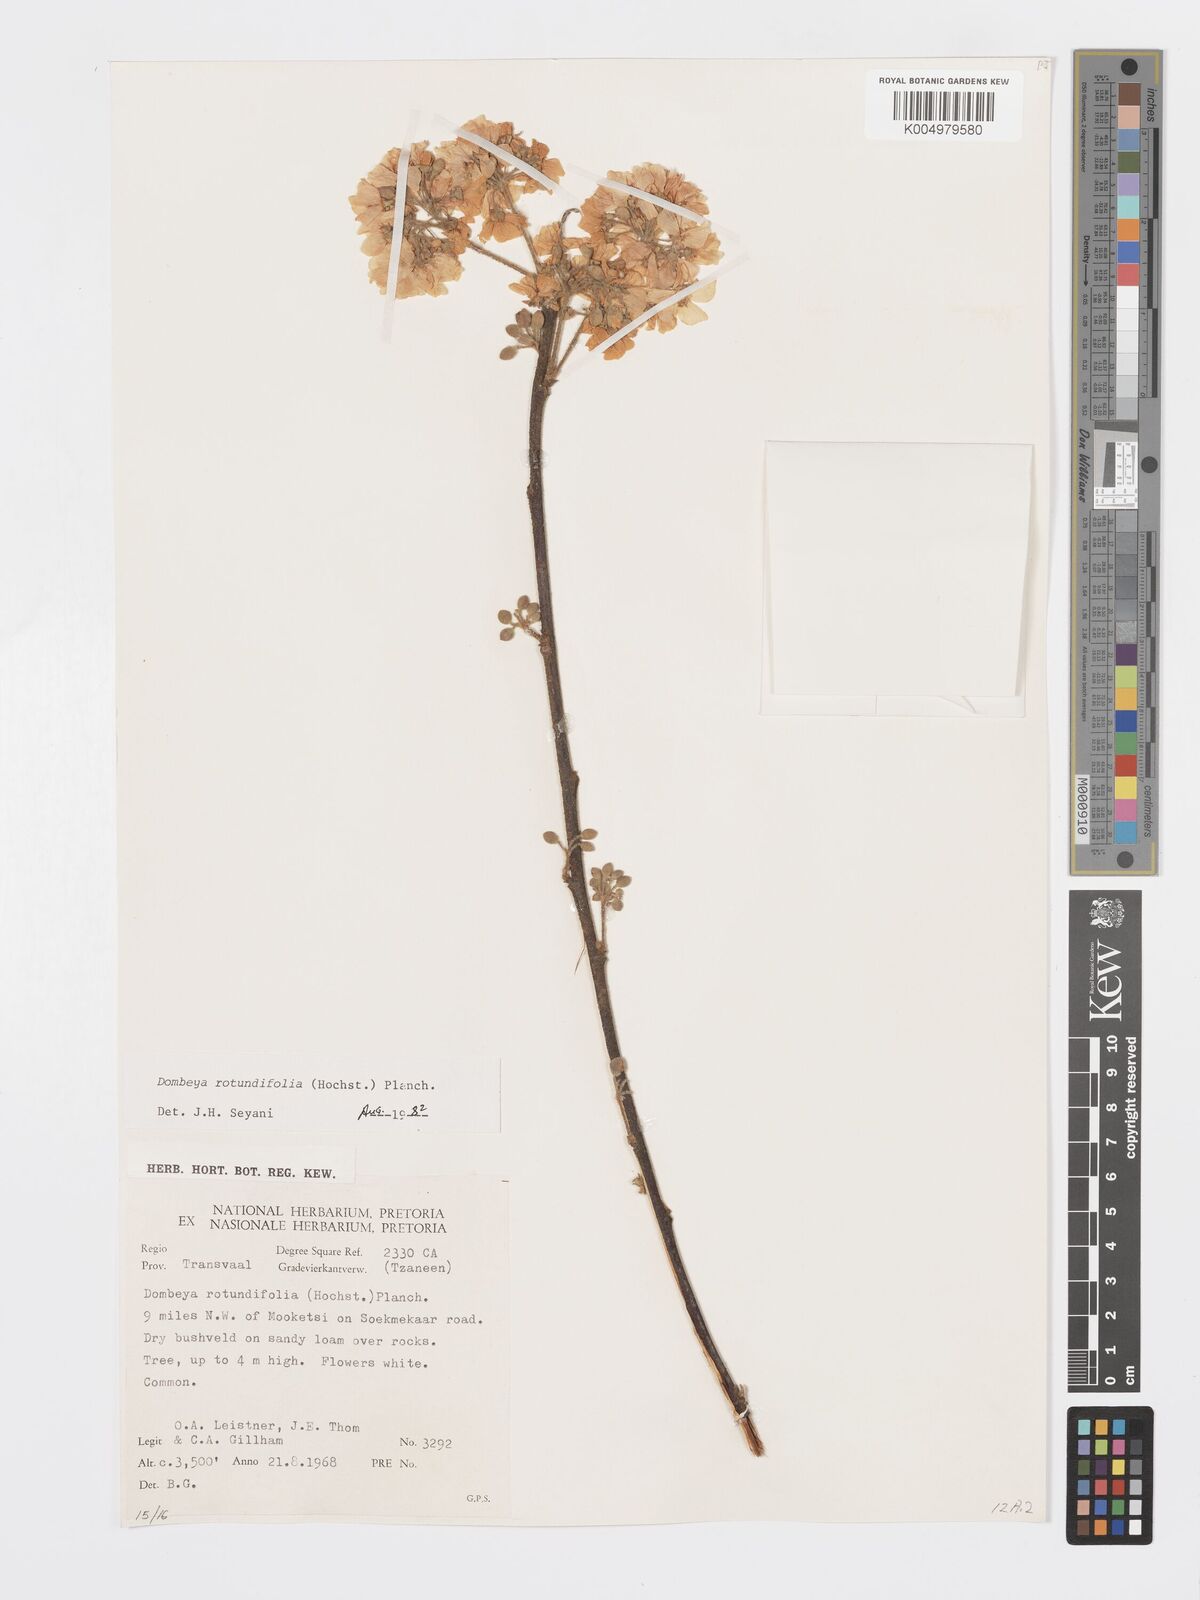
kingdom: Plantae
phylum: Tracheophyta
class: Magnoliopsida
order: Malvales
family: Malvaceae
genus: Dombeya
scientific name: Dombeya rotundifolia
